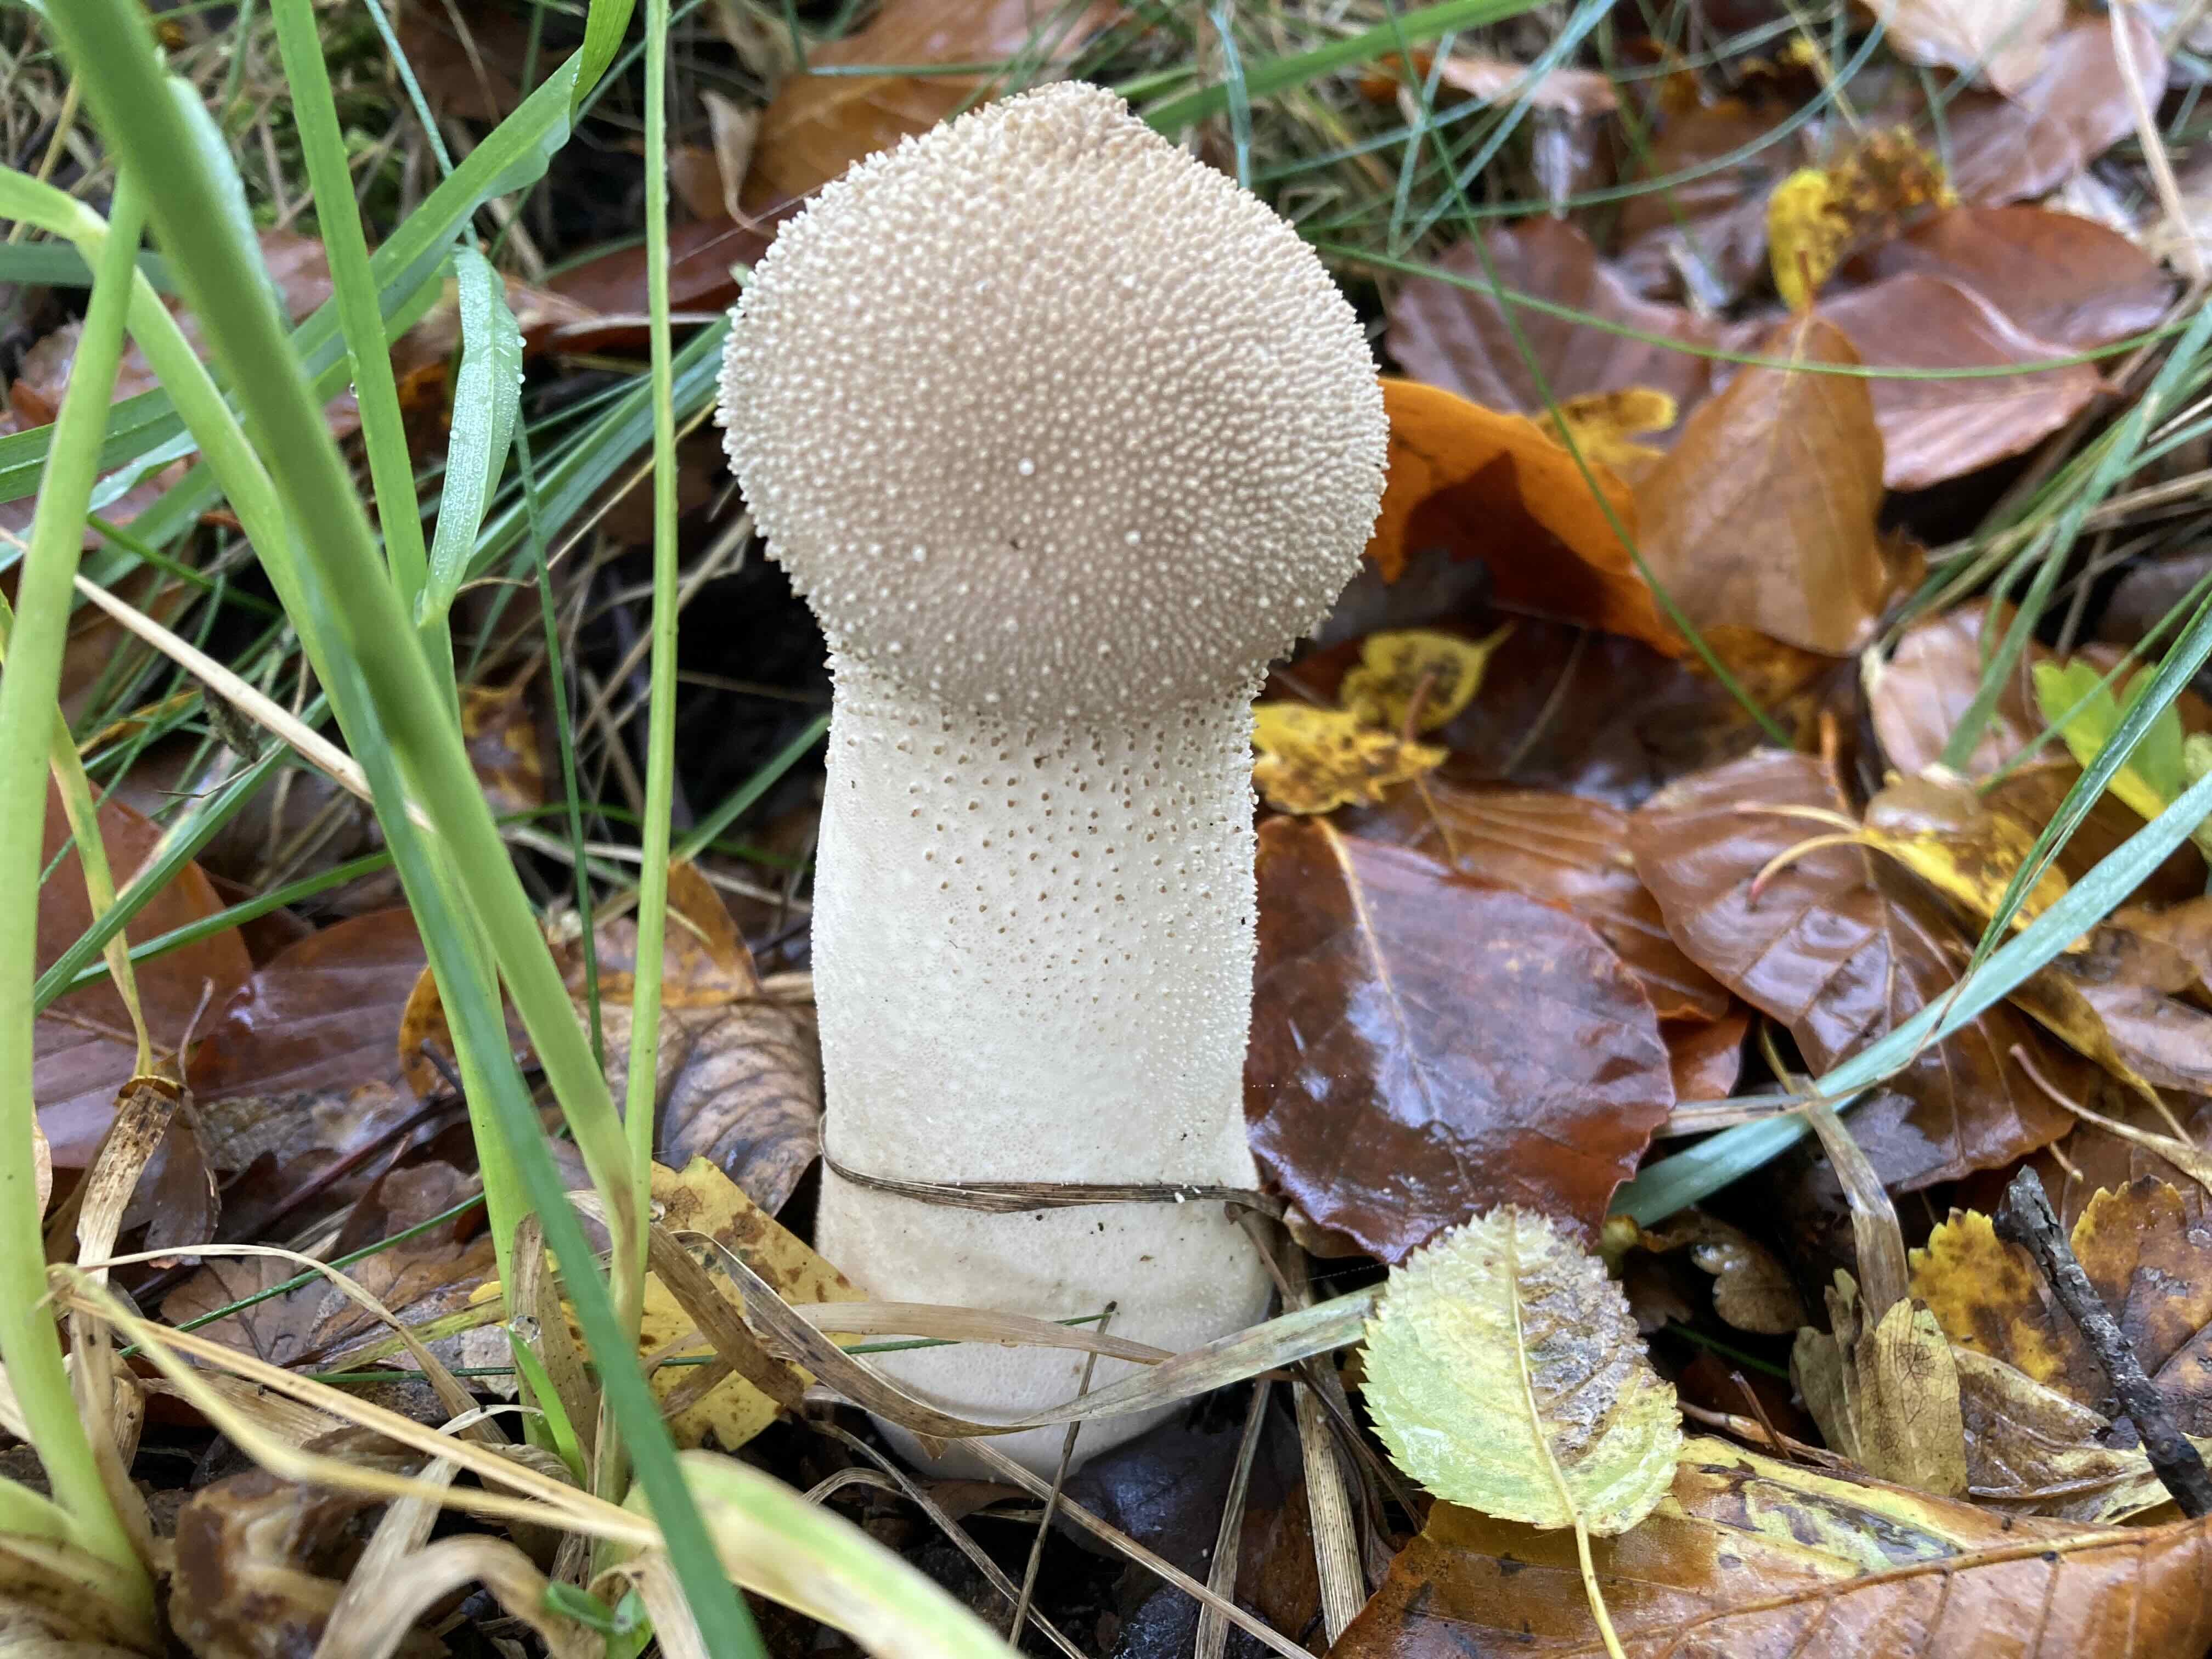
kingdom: Fungi
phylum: Basidiomycota
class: Agaricomycetes
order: Agaricales
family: Lycoperdaceae
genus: Lycoperdon
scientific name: Lycoperdon perlatum
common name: krystal-støvbold
